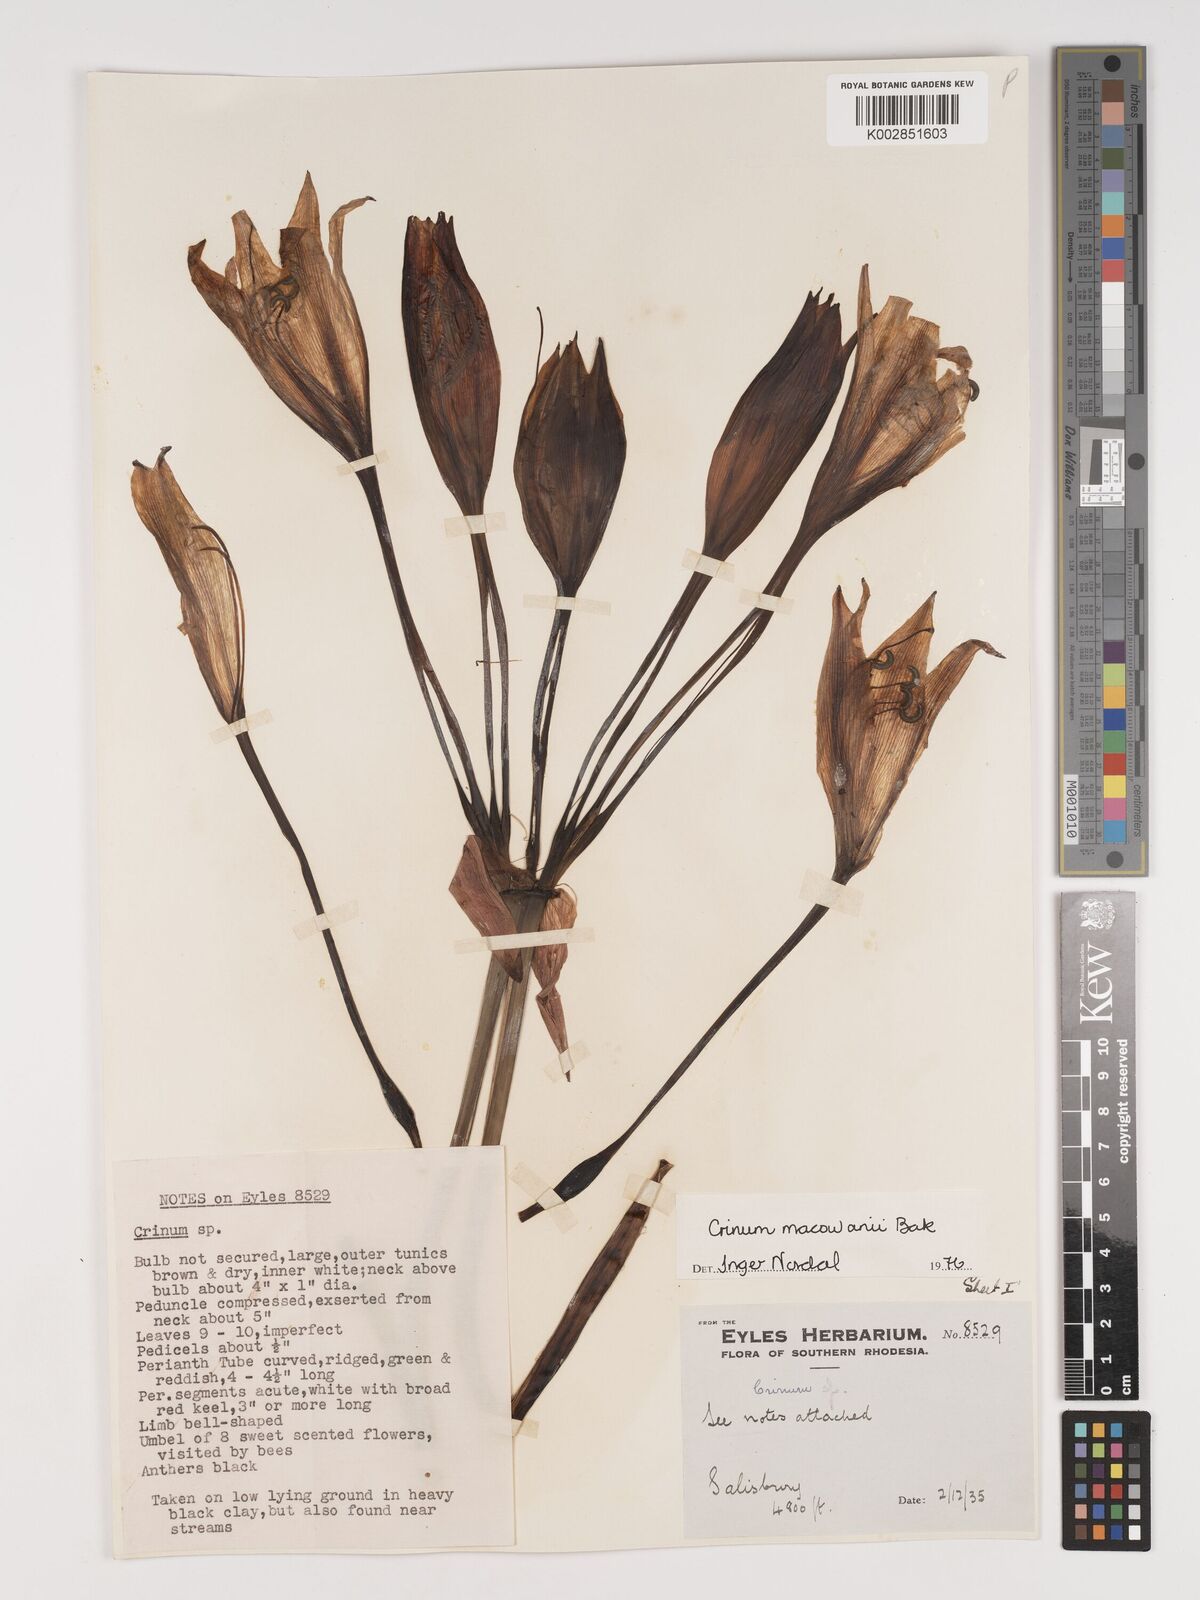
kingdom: Plantae
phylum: Tracheophyta
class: Liliopsida
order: Asparagales
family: Amaryllidaceae
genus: Crinum
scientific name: Crinum macowanii
